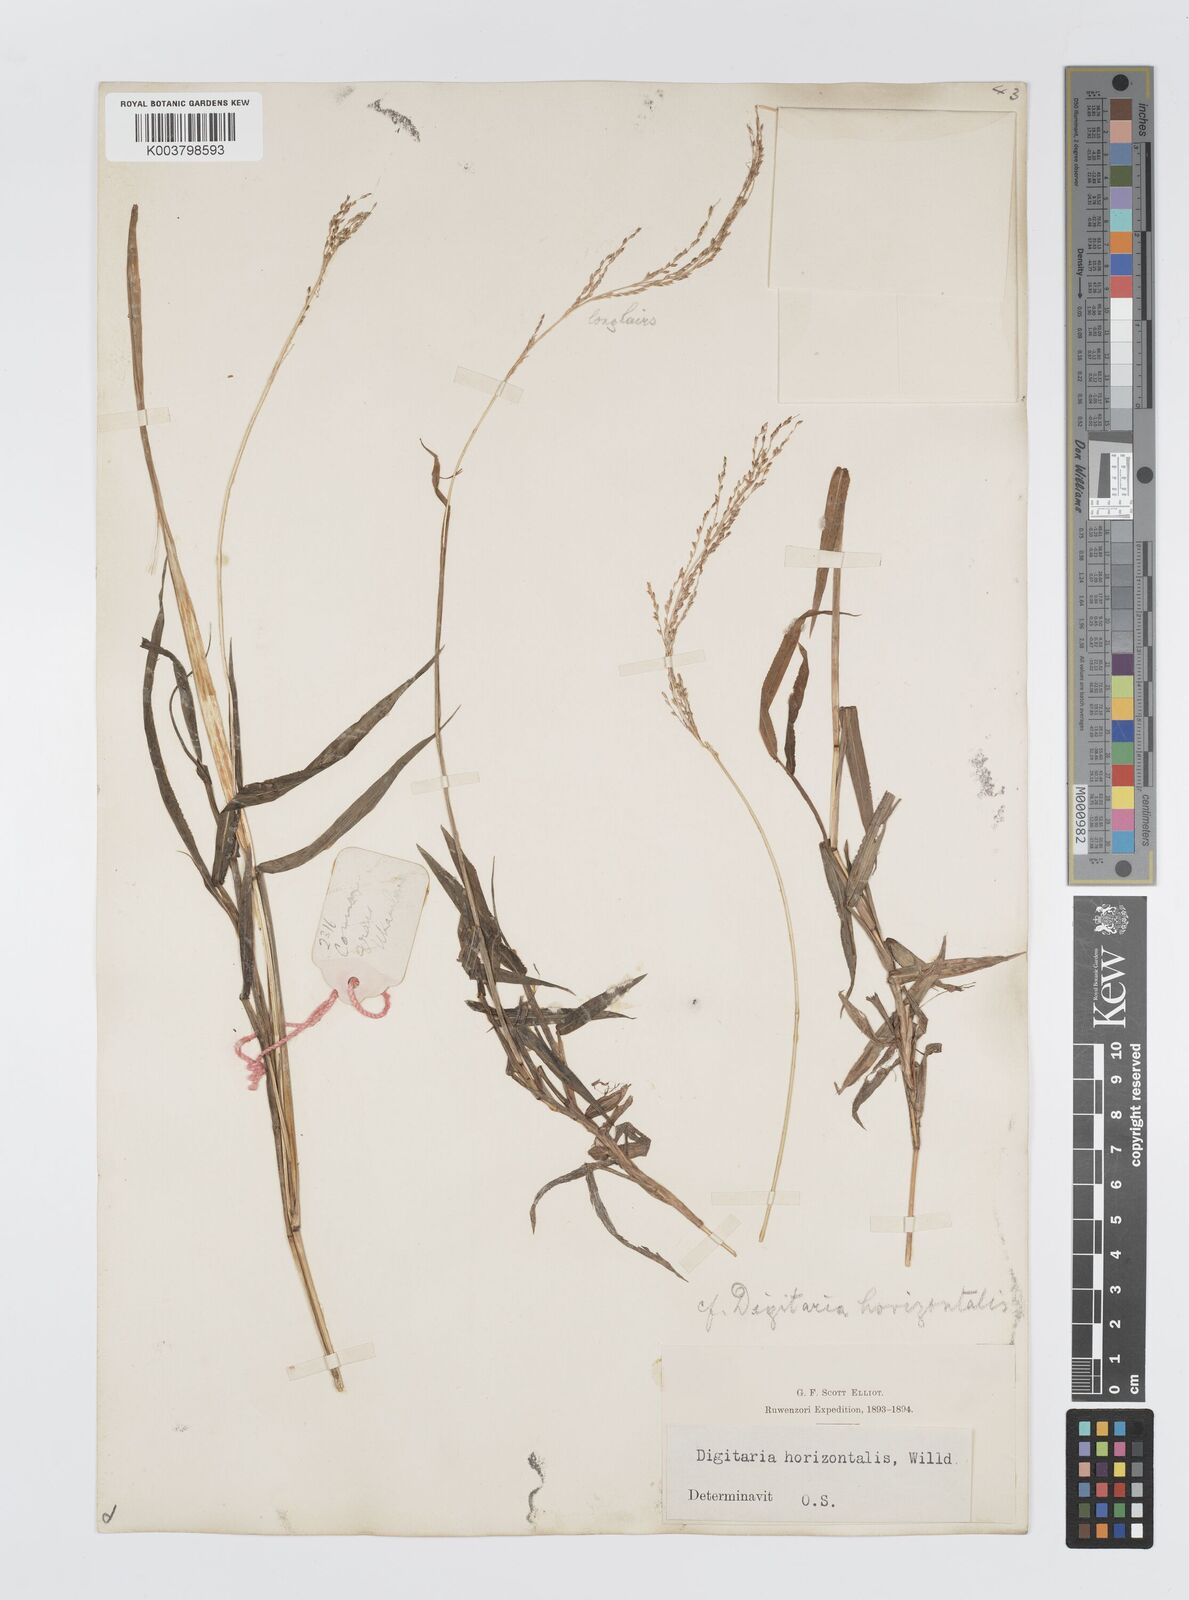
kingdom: Plantae
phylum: Tracheophyta
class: Liliopsida
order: Poales
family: Poaceae
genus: Digitaria
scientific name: Digitaria pearsonii
